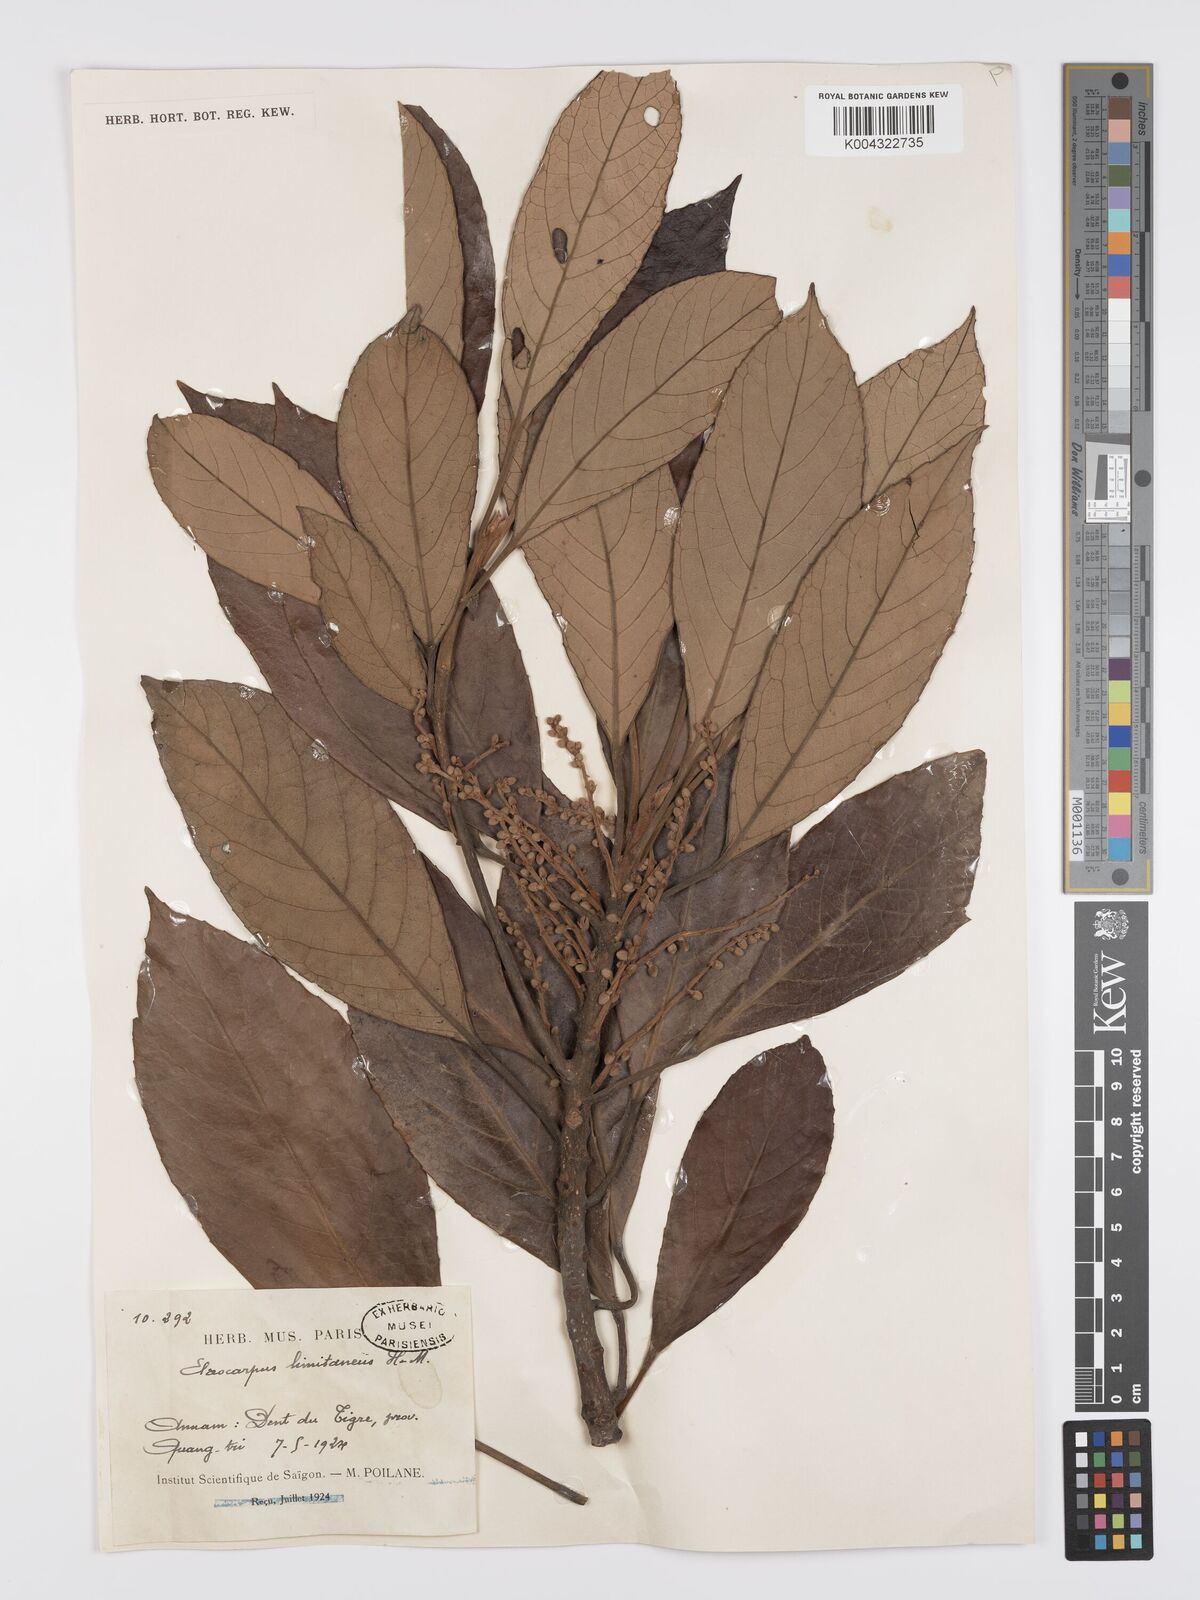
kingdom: Plantae
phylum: Tracheophyta
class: Magnoliopsida
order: Oxalidales
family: Elaeocarpaceae
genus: Elaeocarpus
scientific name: Elaeocarpus limitaneus
